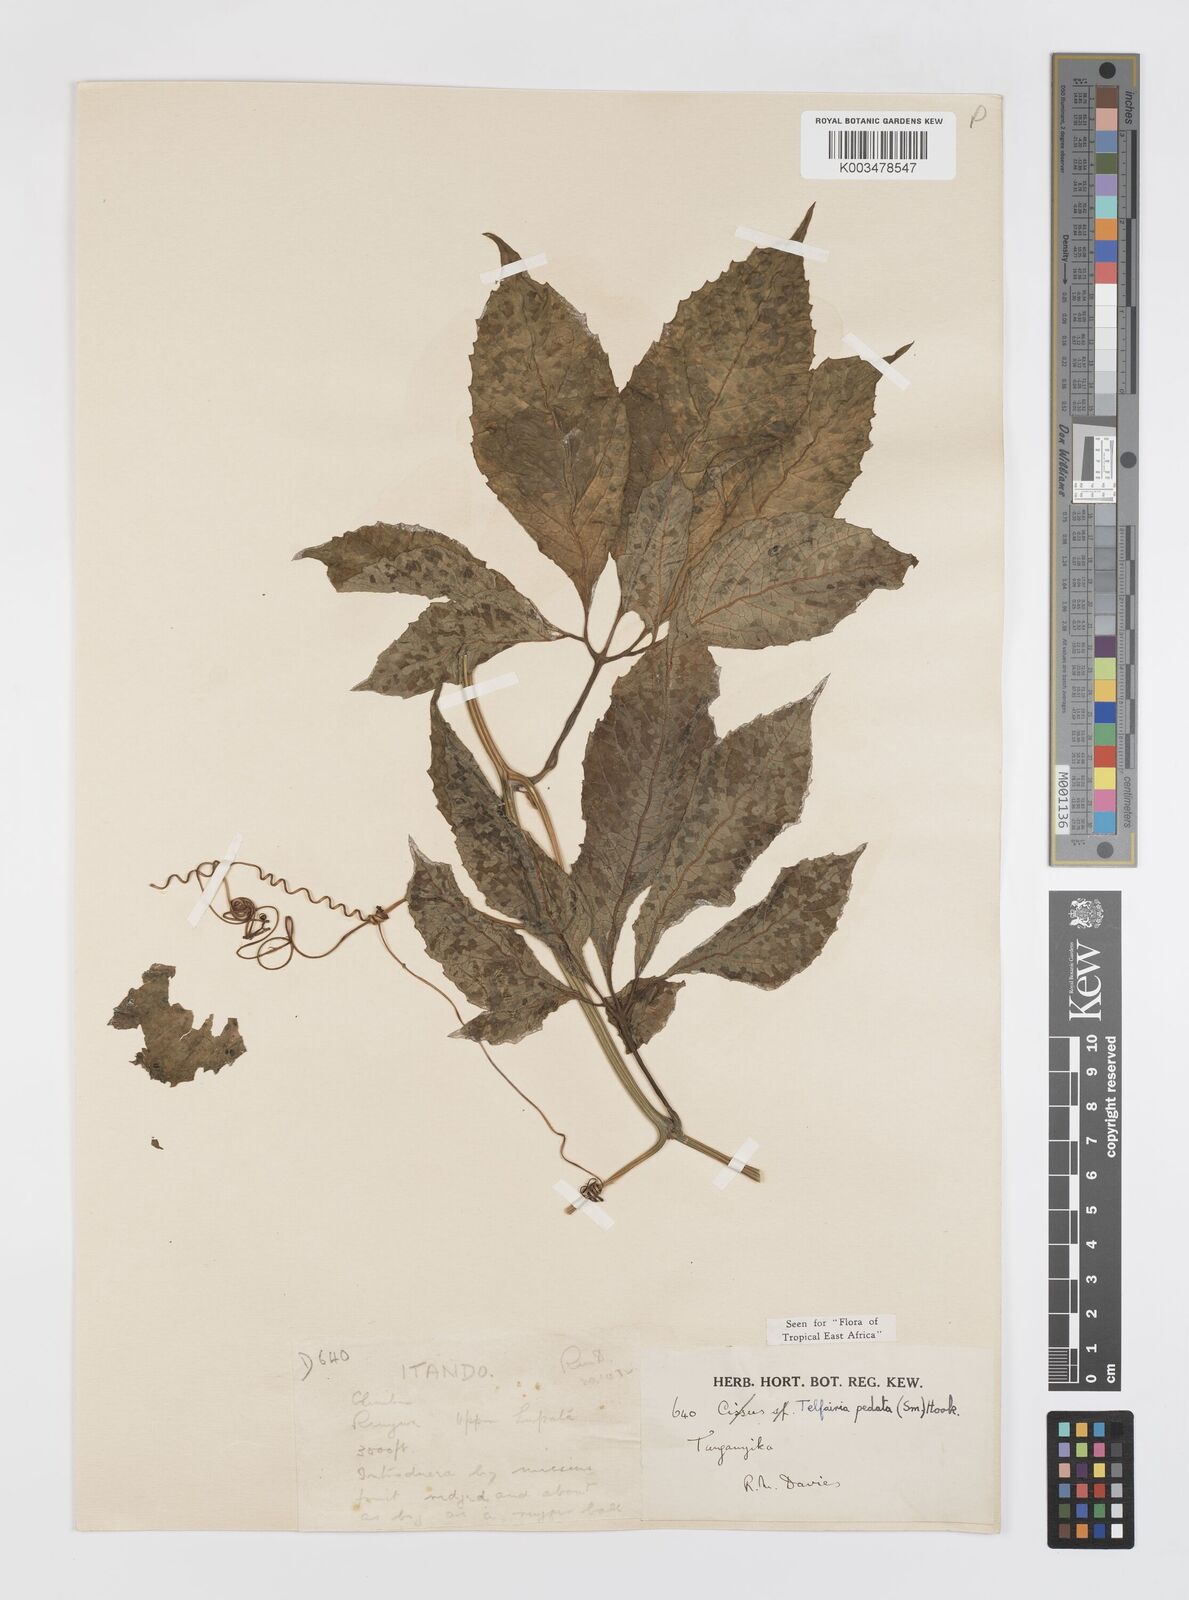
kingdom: Plantae
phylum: Tracheophyta
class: Magnoliopsida
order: Cucurbitales
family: Cucurbitaceae
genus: Telfairia
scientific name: Telfairia pedata
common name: Zanzibar oilvine
